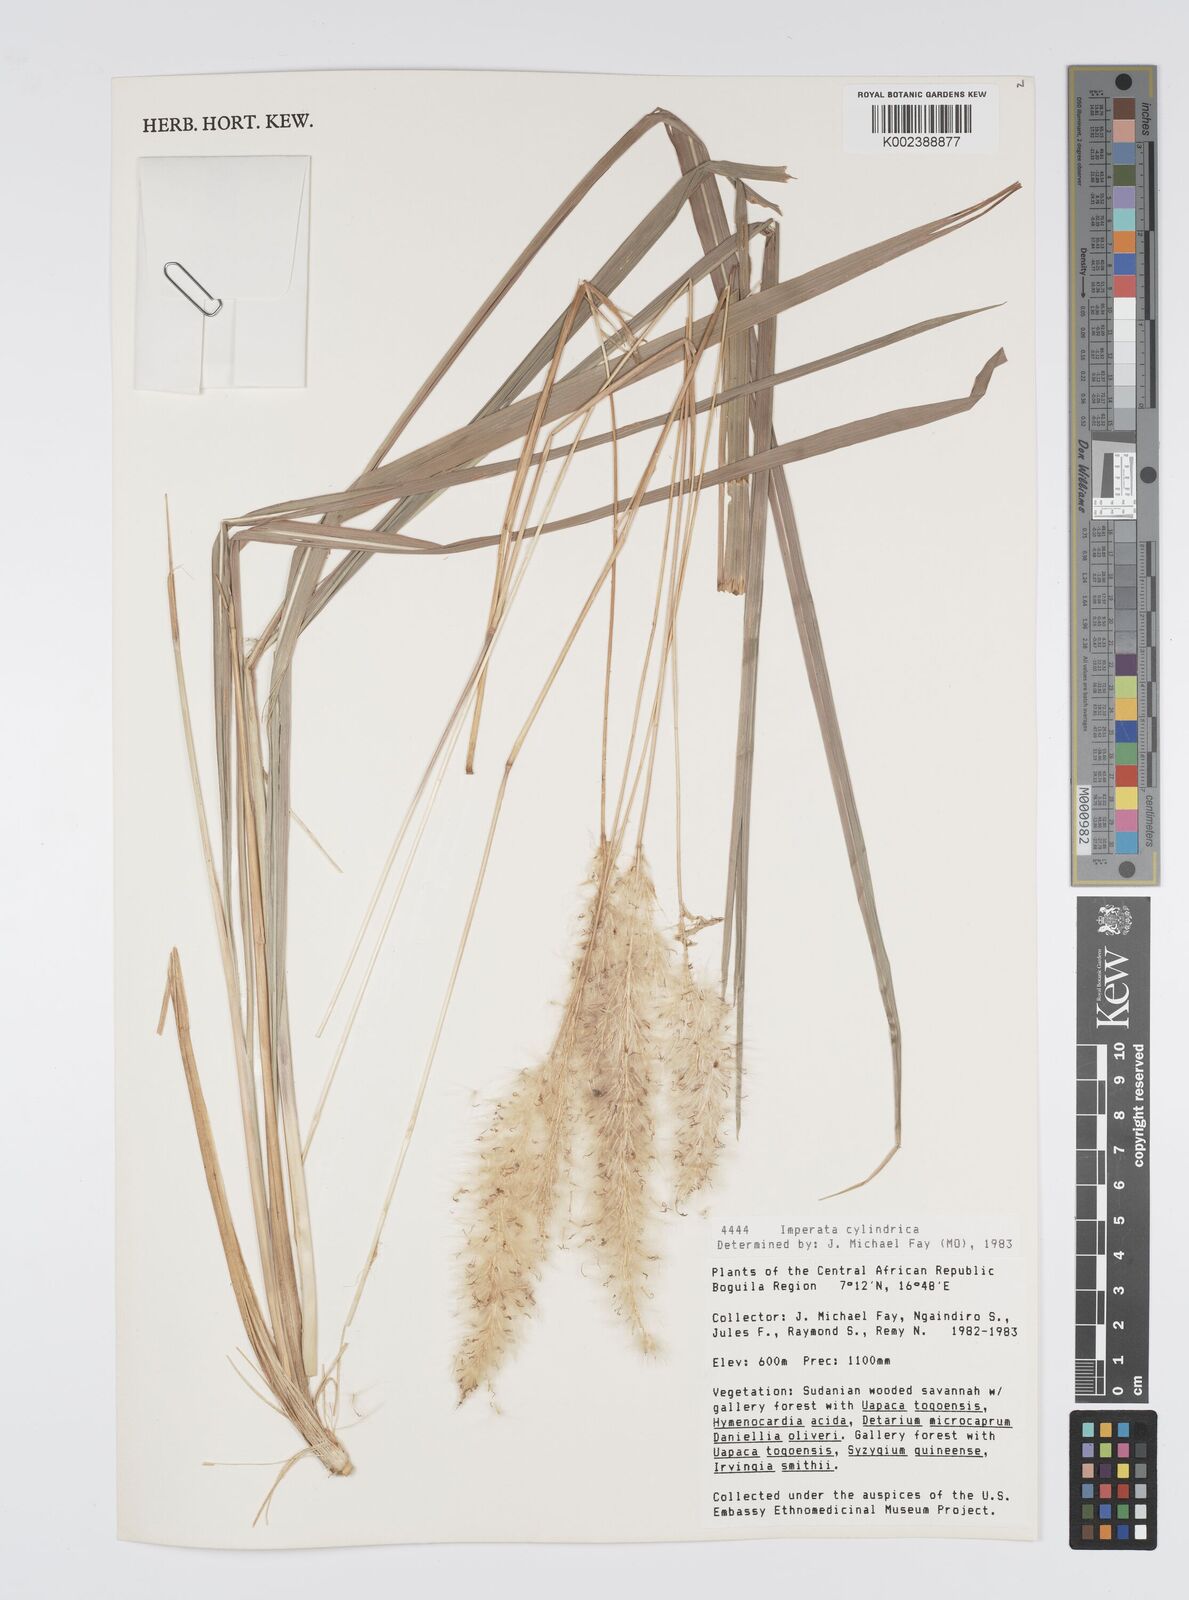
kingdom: Plantae
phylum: Tracheophyta
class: Liliopsida
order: Poales
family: Poaceae
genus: Imperata
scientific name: Imperata cylindrica
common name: Cogongrass
